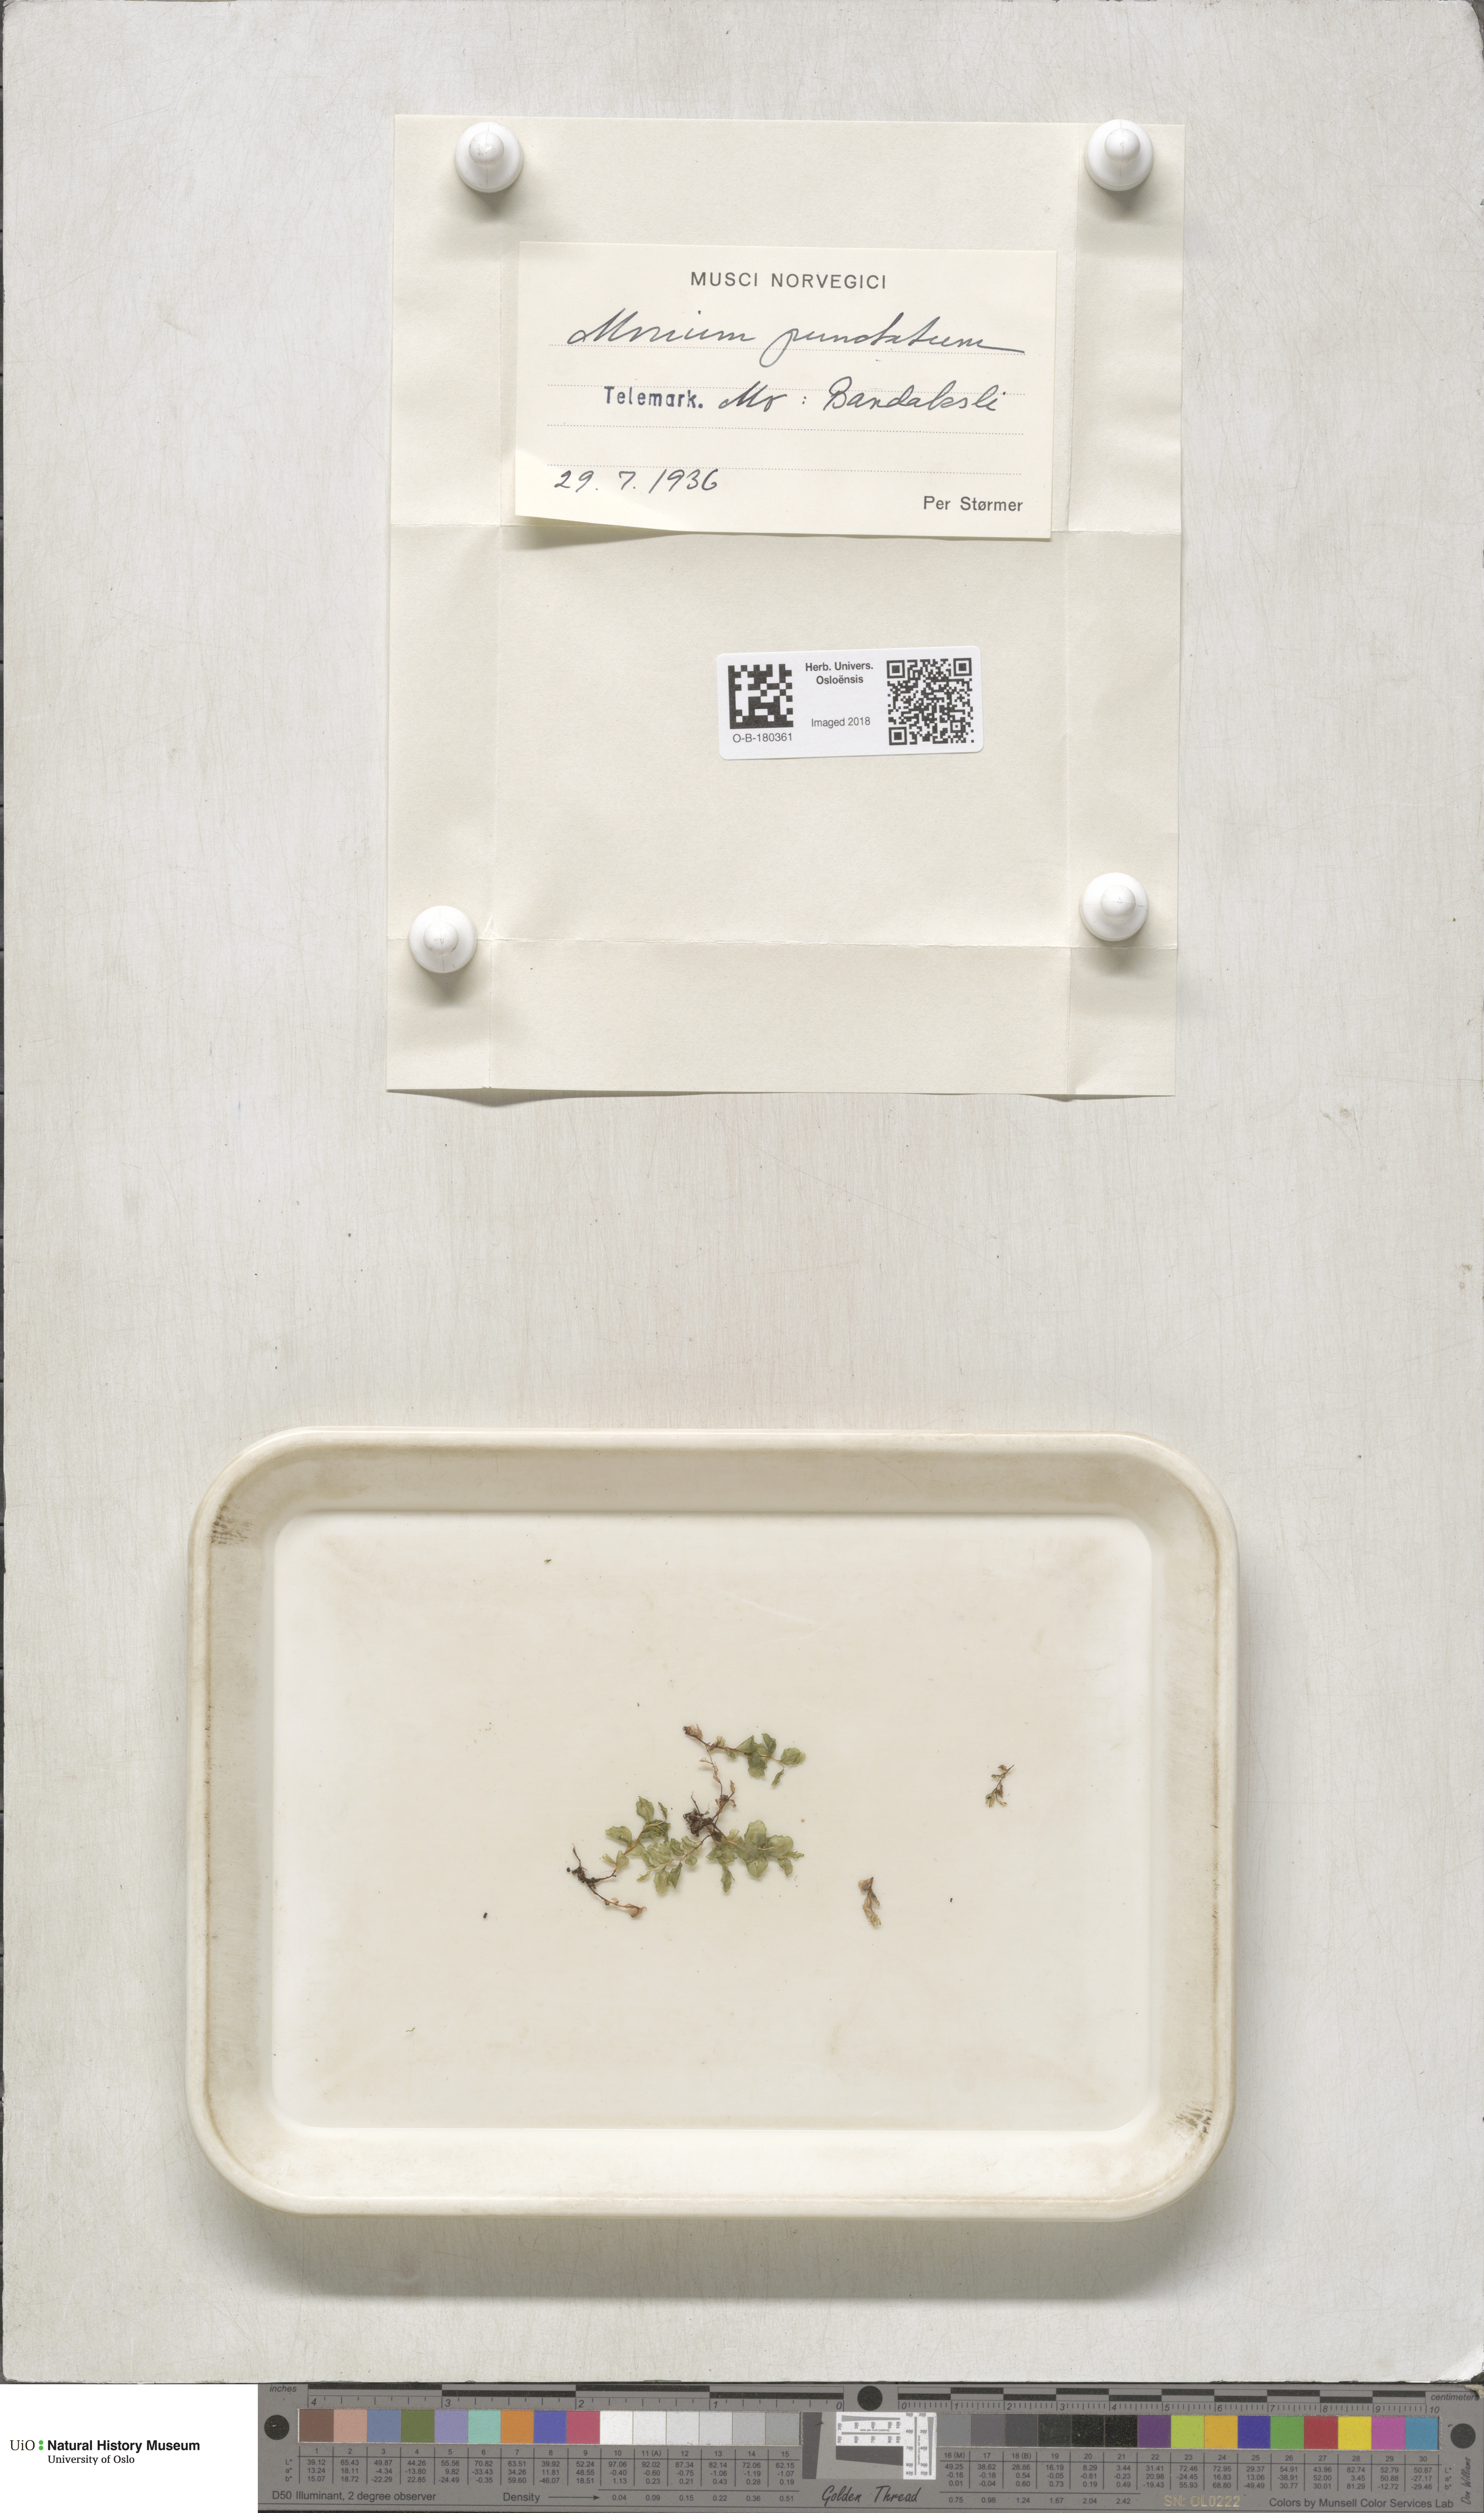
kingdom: Plantae
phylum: Bryophyta
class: Bryopsida
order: Bryales
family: Mniaceae
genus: Rhizomnium
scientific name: Rhizomnium punctatum
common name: Dotted leafy moss
